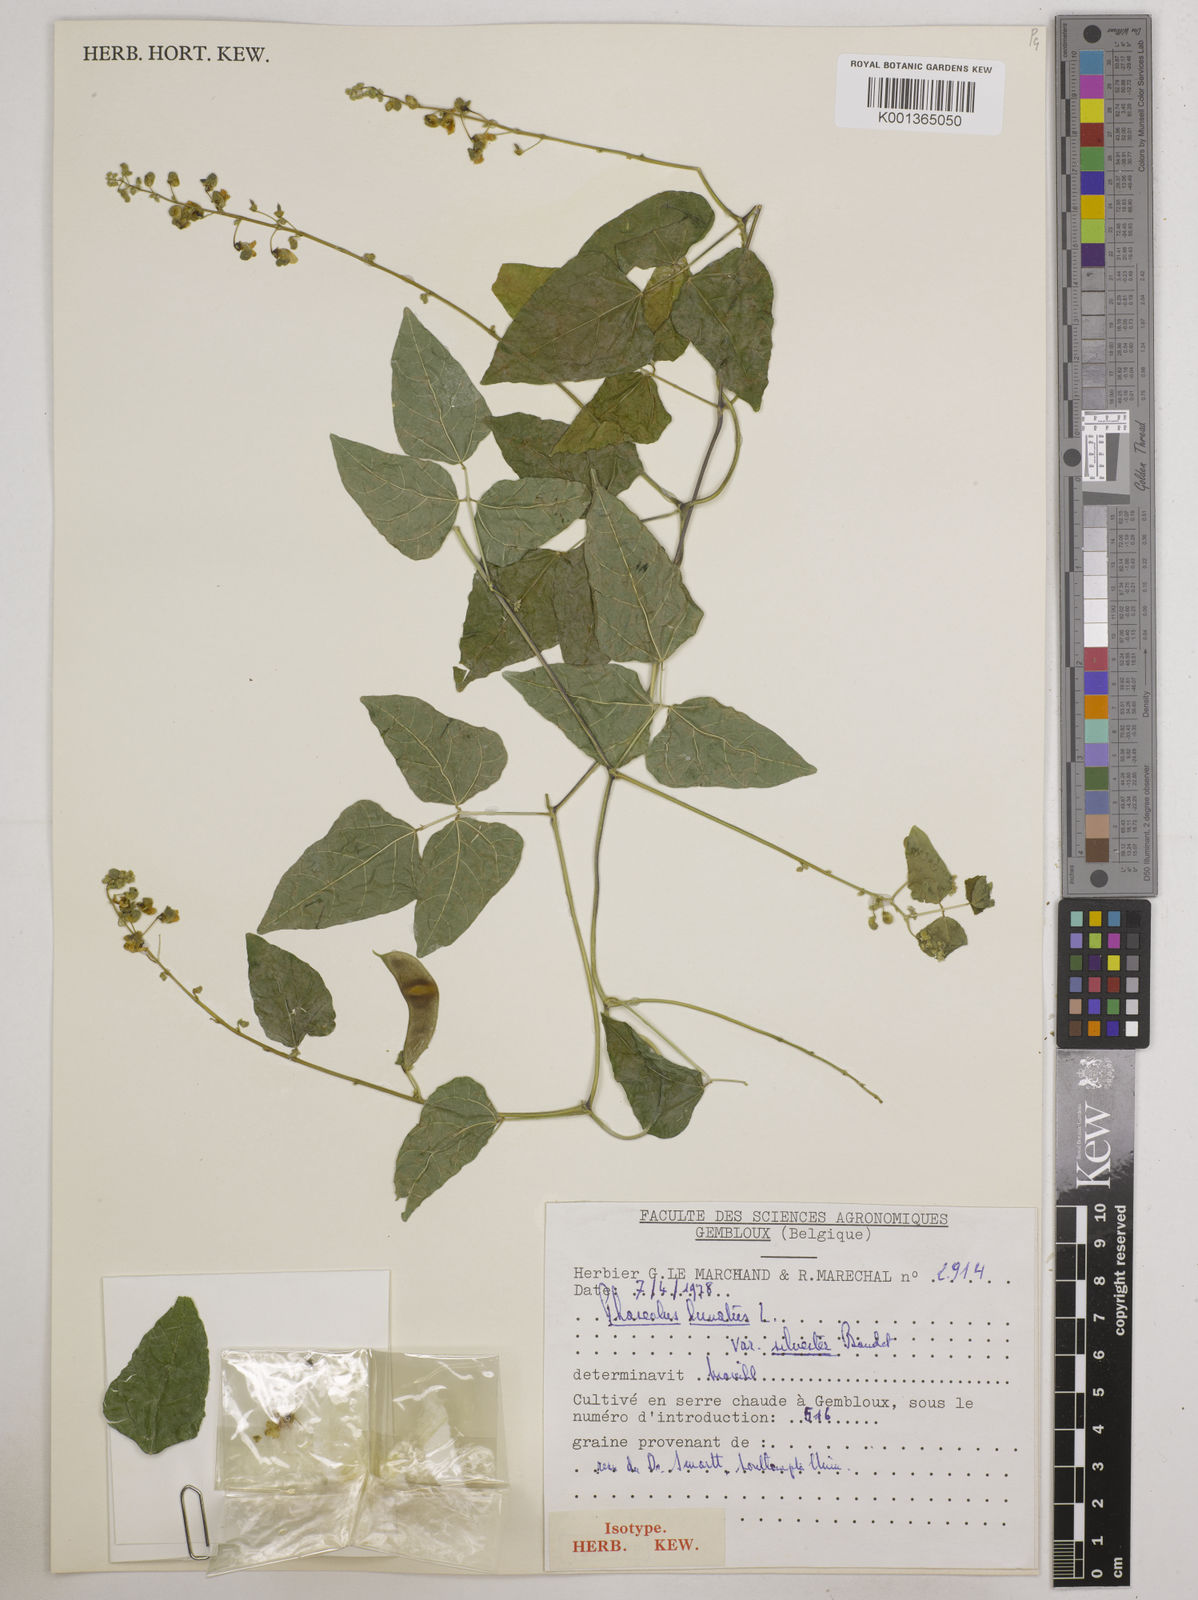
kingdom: Plantae
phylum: Tracheophyta
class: Magnoliopsida
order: Fabales
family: Fabaceae
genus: Phaseolus
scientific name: Phaseolus lunatus
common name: Sieva bean
